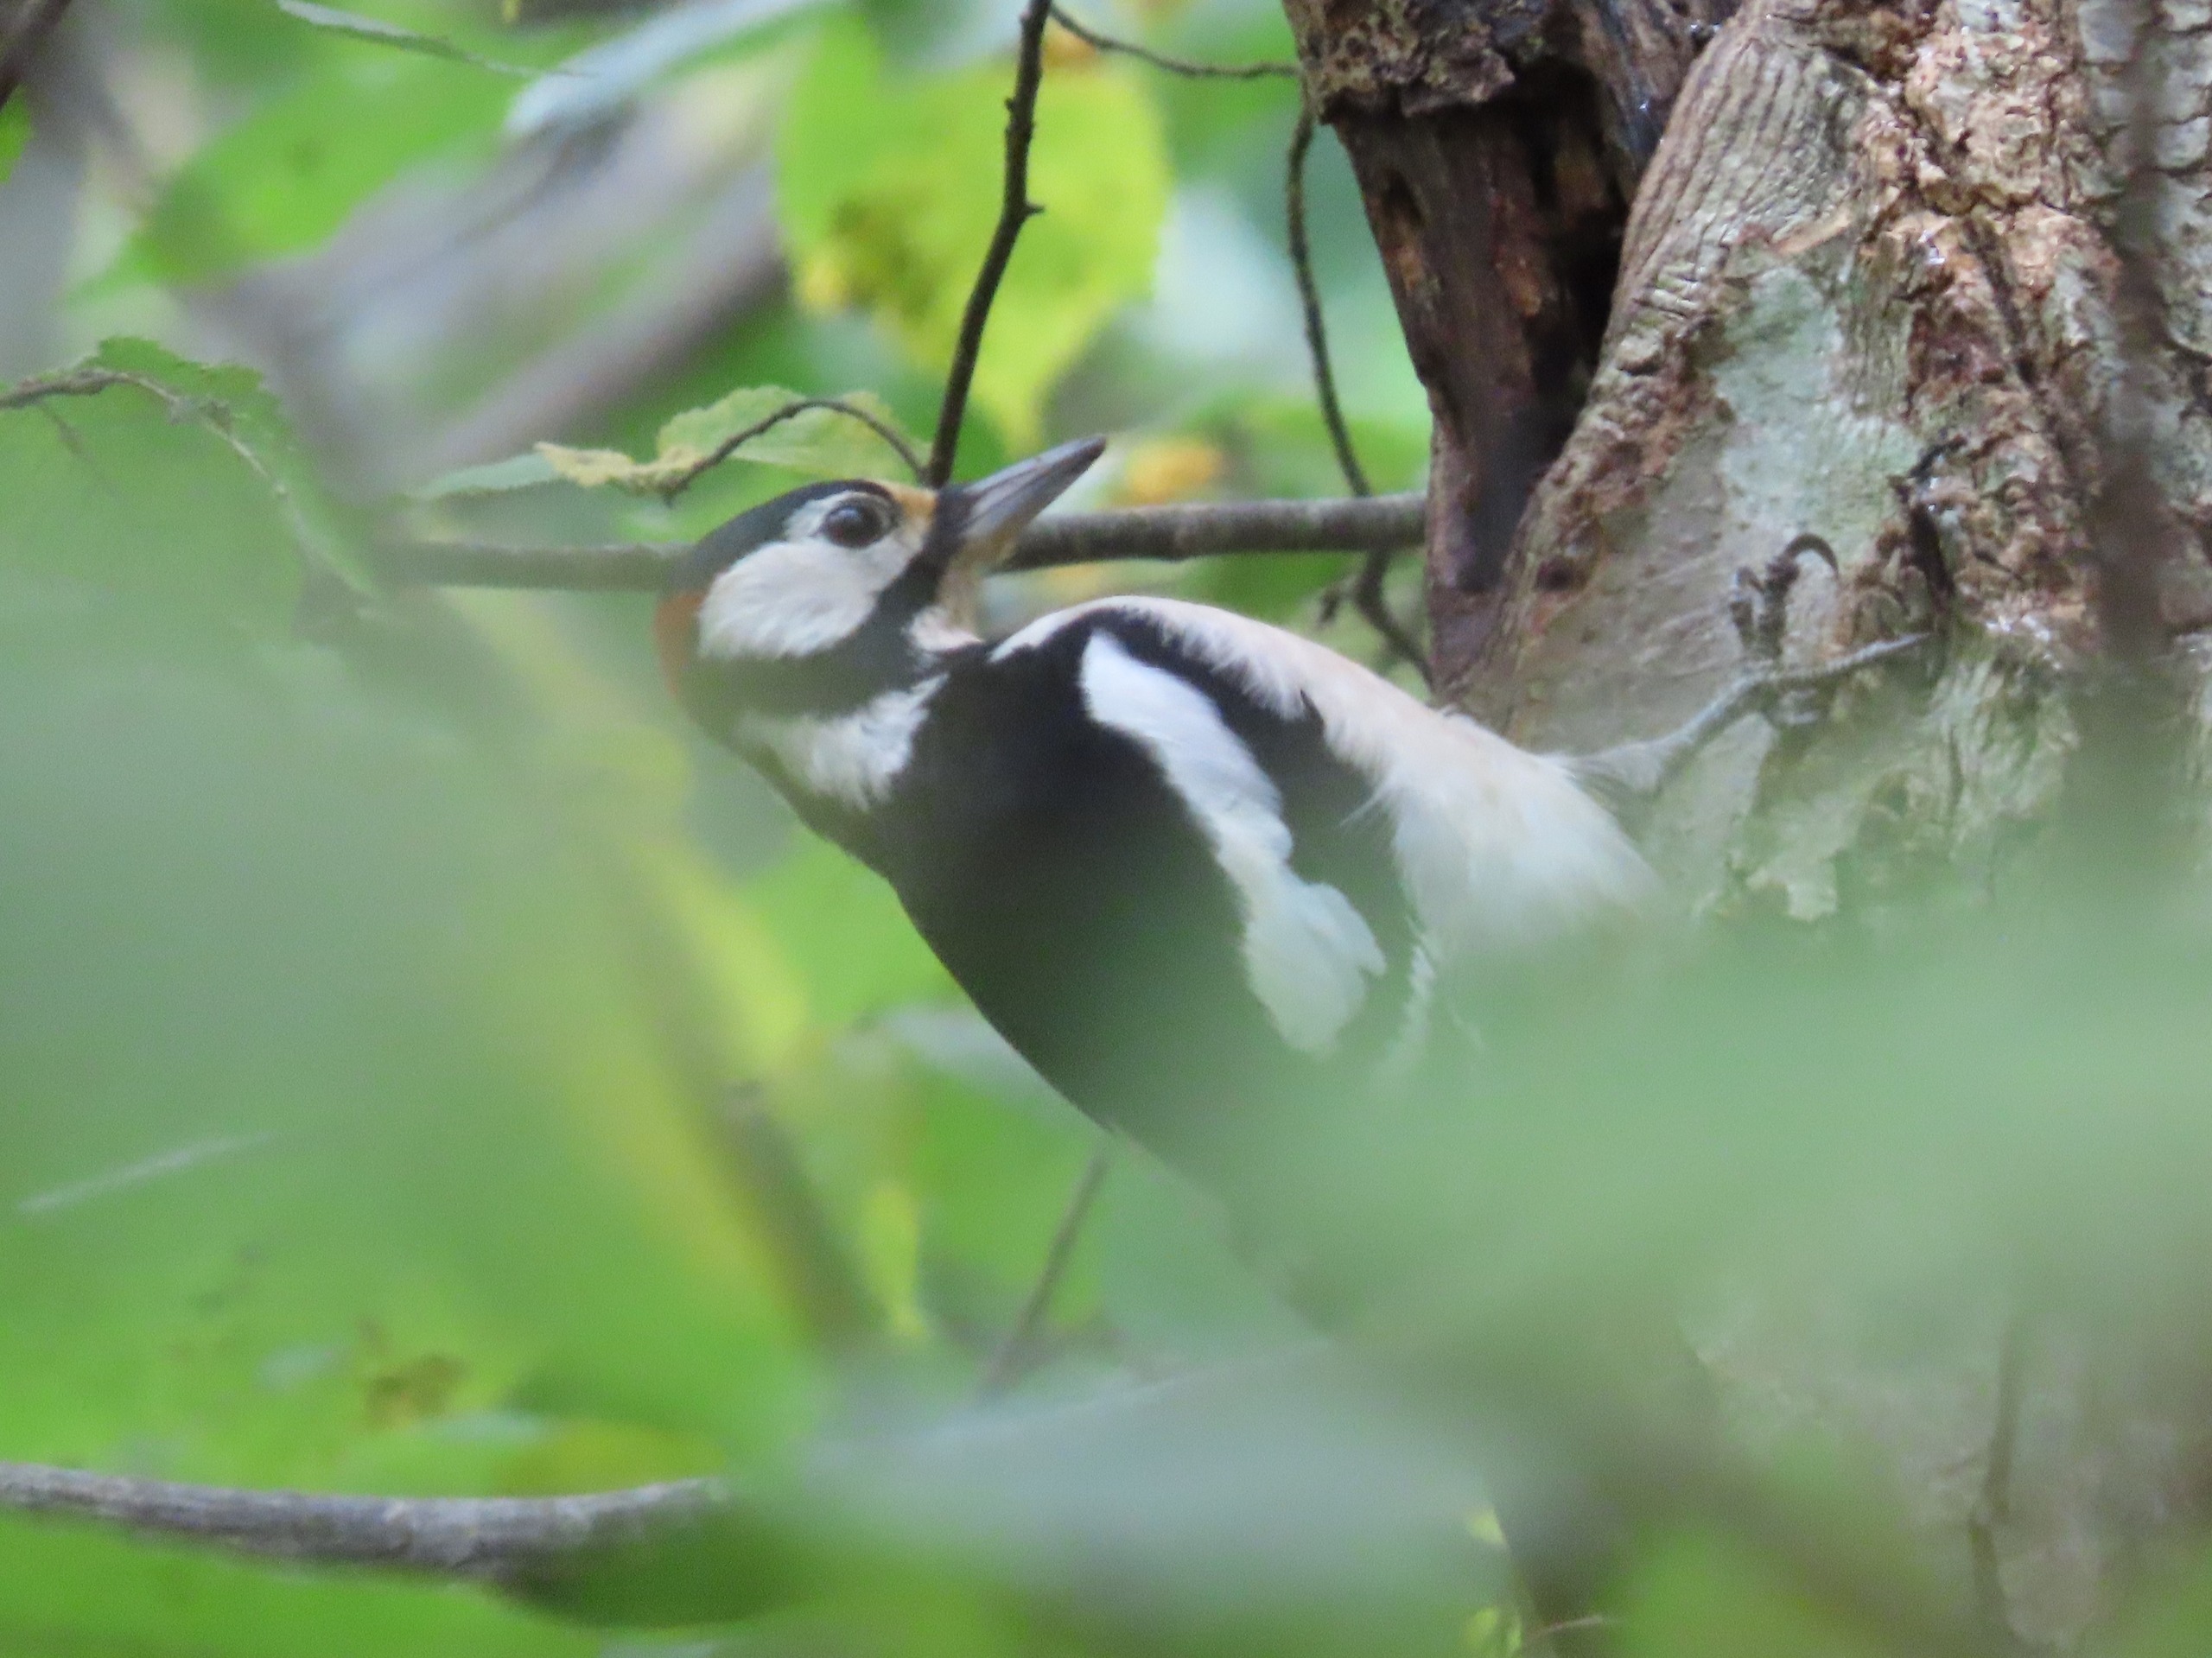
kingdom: Animalia
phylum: Chordata
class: Aves
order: Piciformes
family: Picidae
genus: Dendrocopos
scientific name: Dendrocopos major
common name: Stor flagspætte
